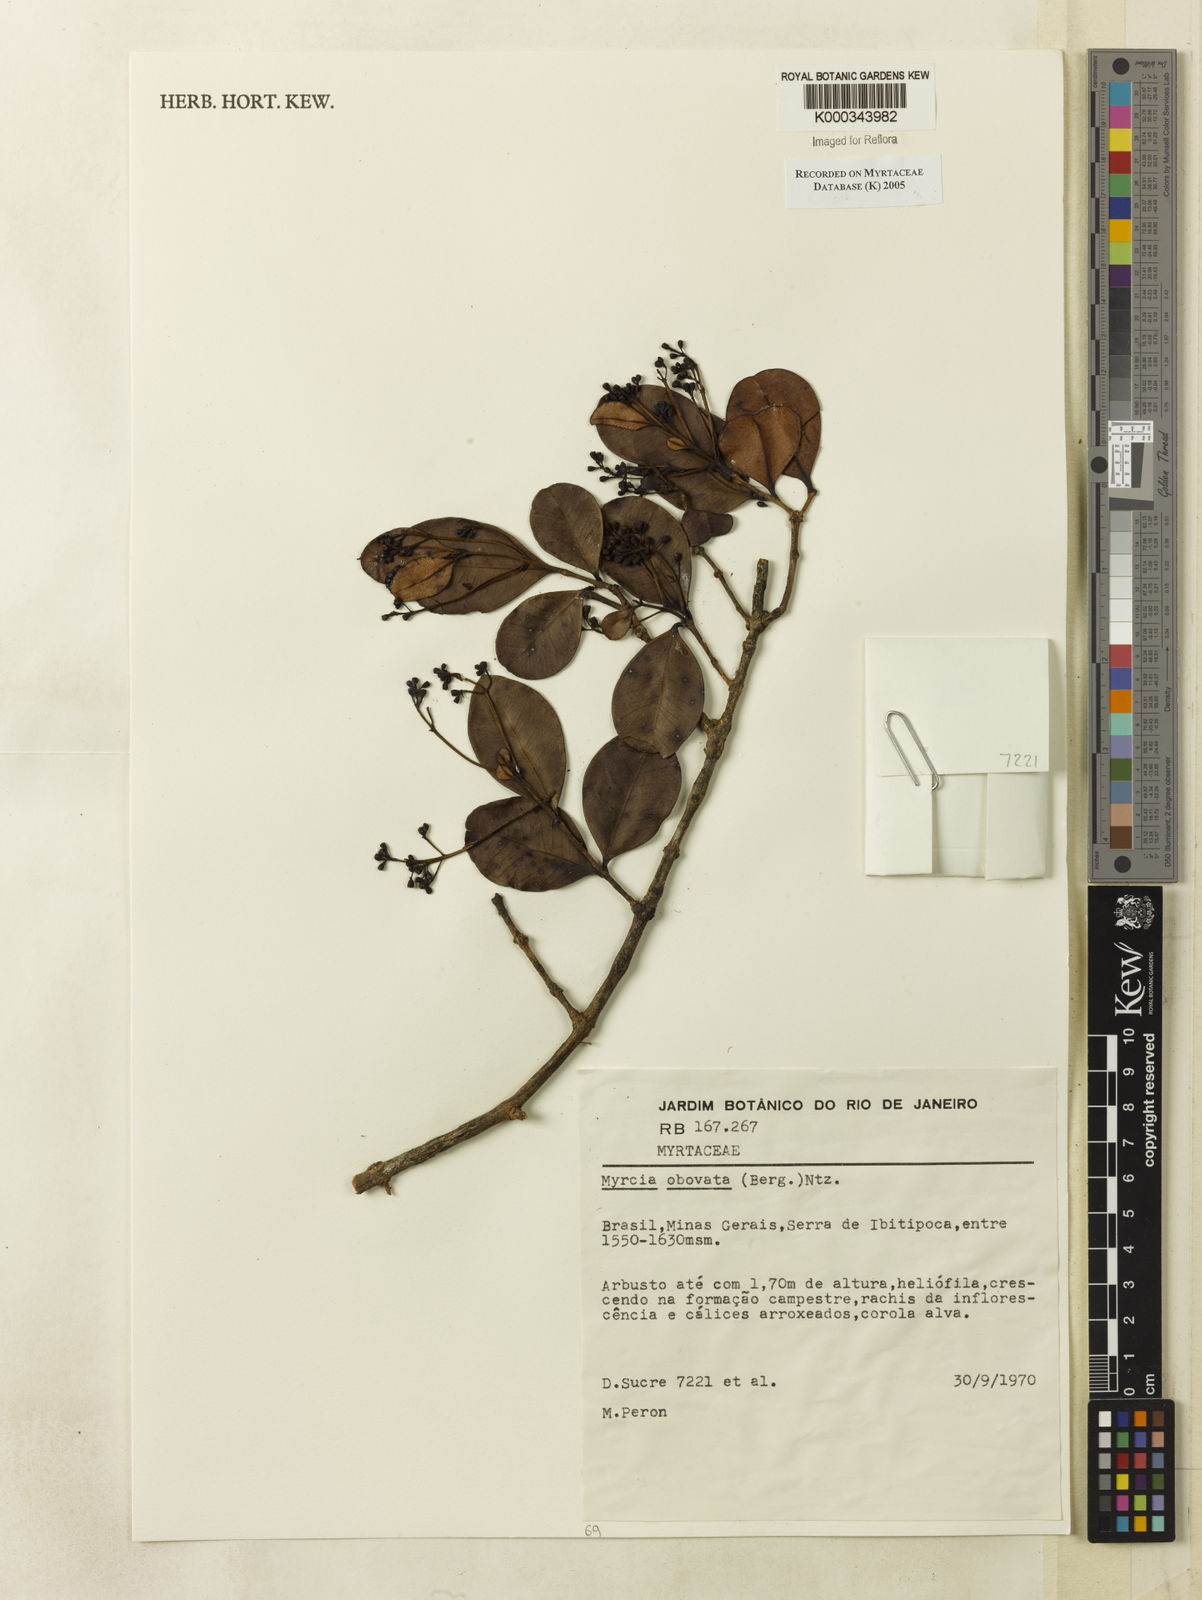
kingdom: Plantae
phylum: Tracheophyta
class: Magnoliopsida
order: Myrtales
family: Myrtaceae
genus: Myrcia
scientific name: Myrcia obovata
